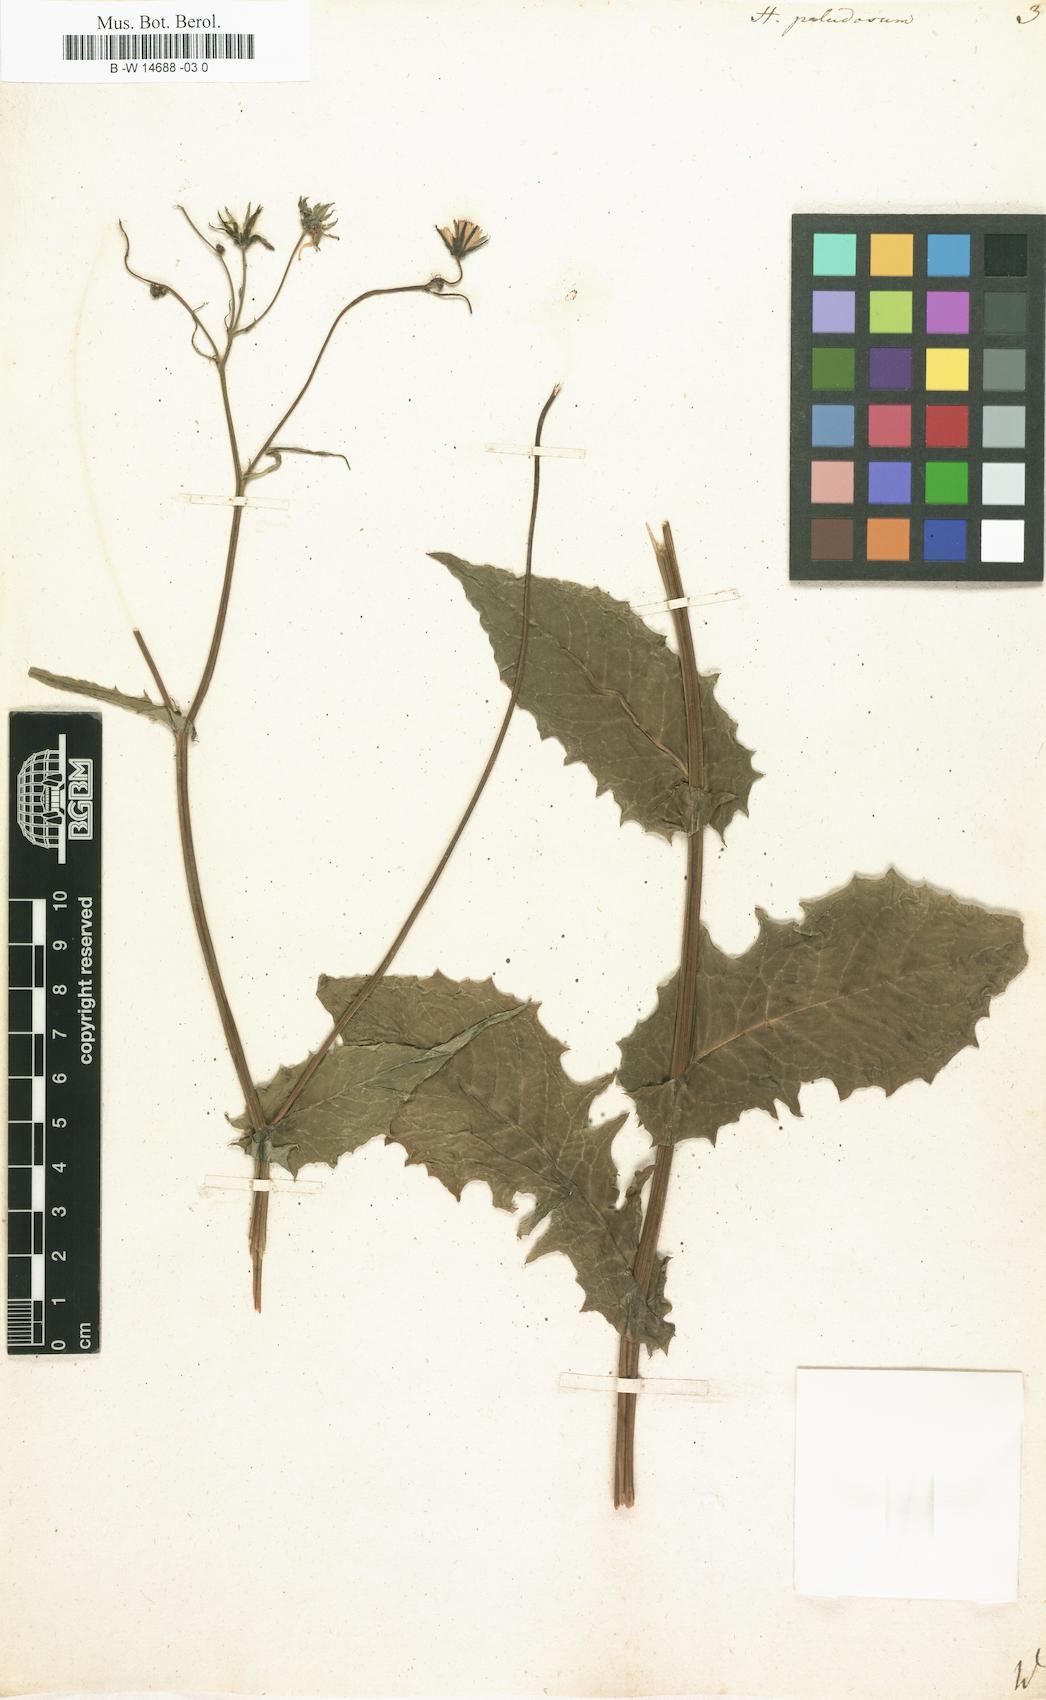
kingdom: Plantae
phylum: Tracheophyta
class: Magnoliopsida
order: Asterales
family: Asteraceae
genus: Crepis
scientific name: Crepis paludosa
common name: Marsh hawk's-beard
